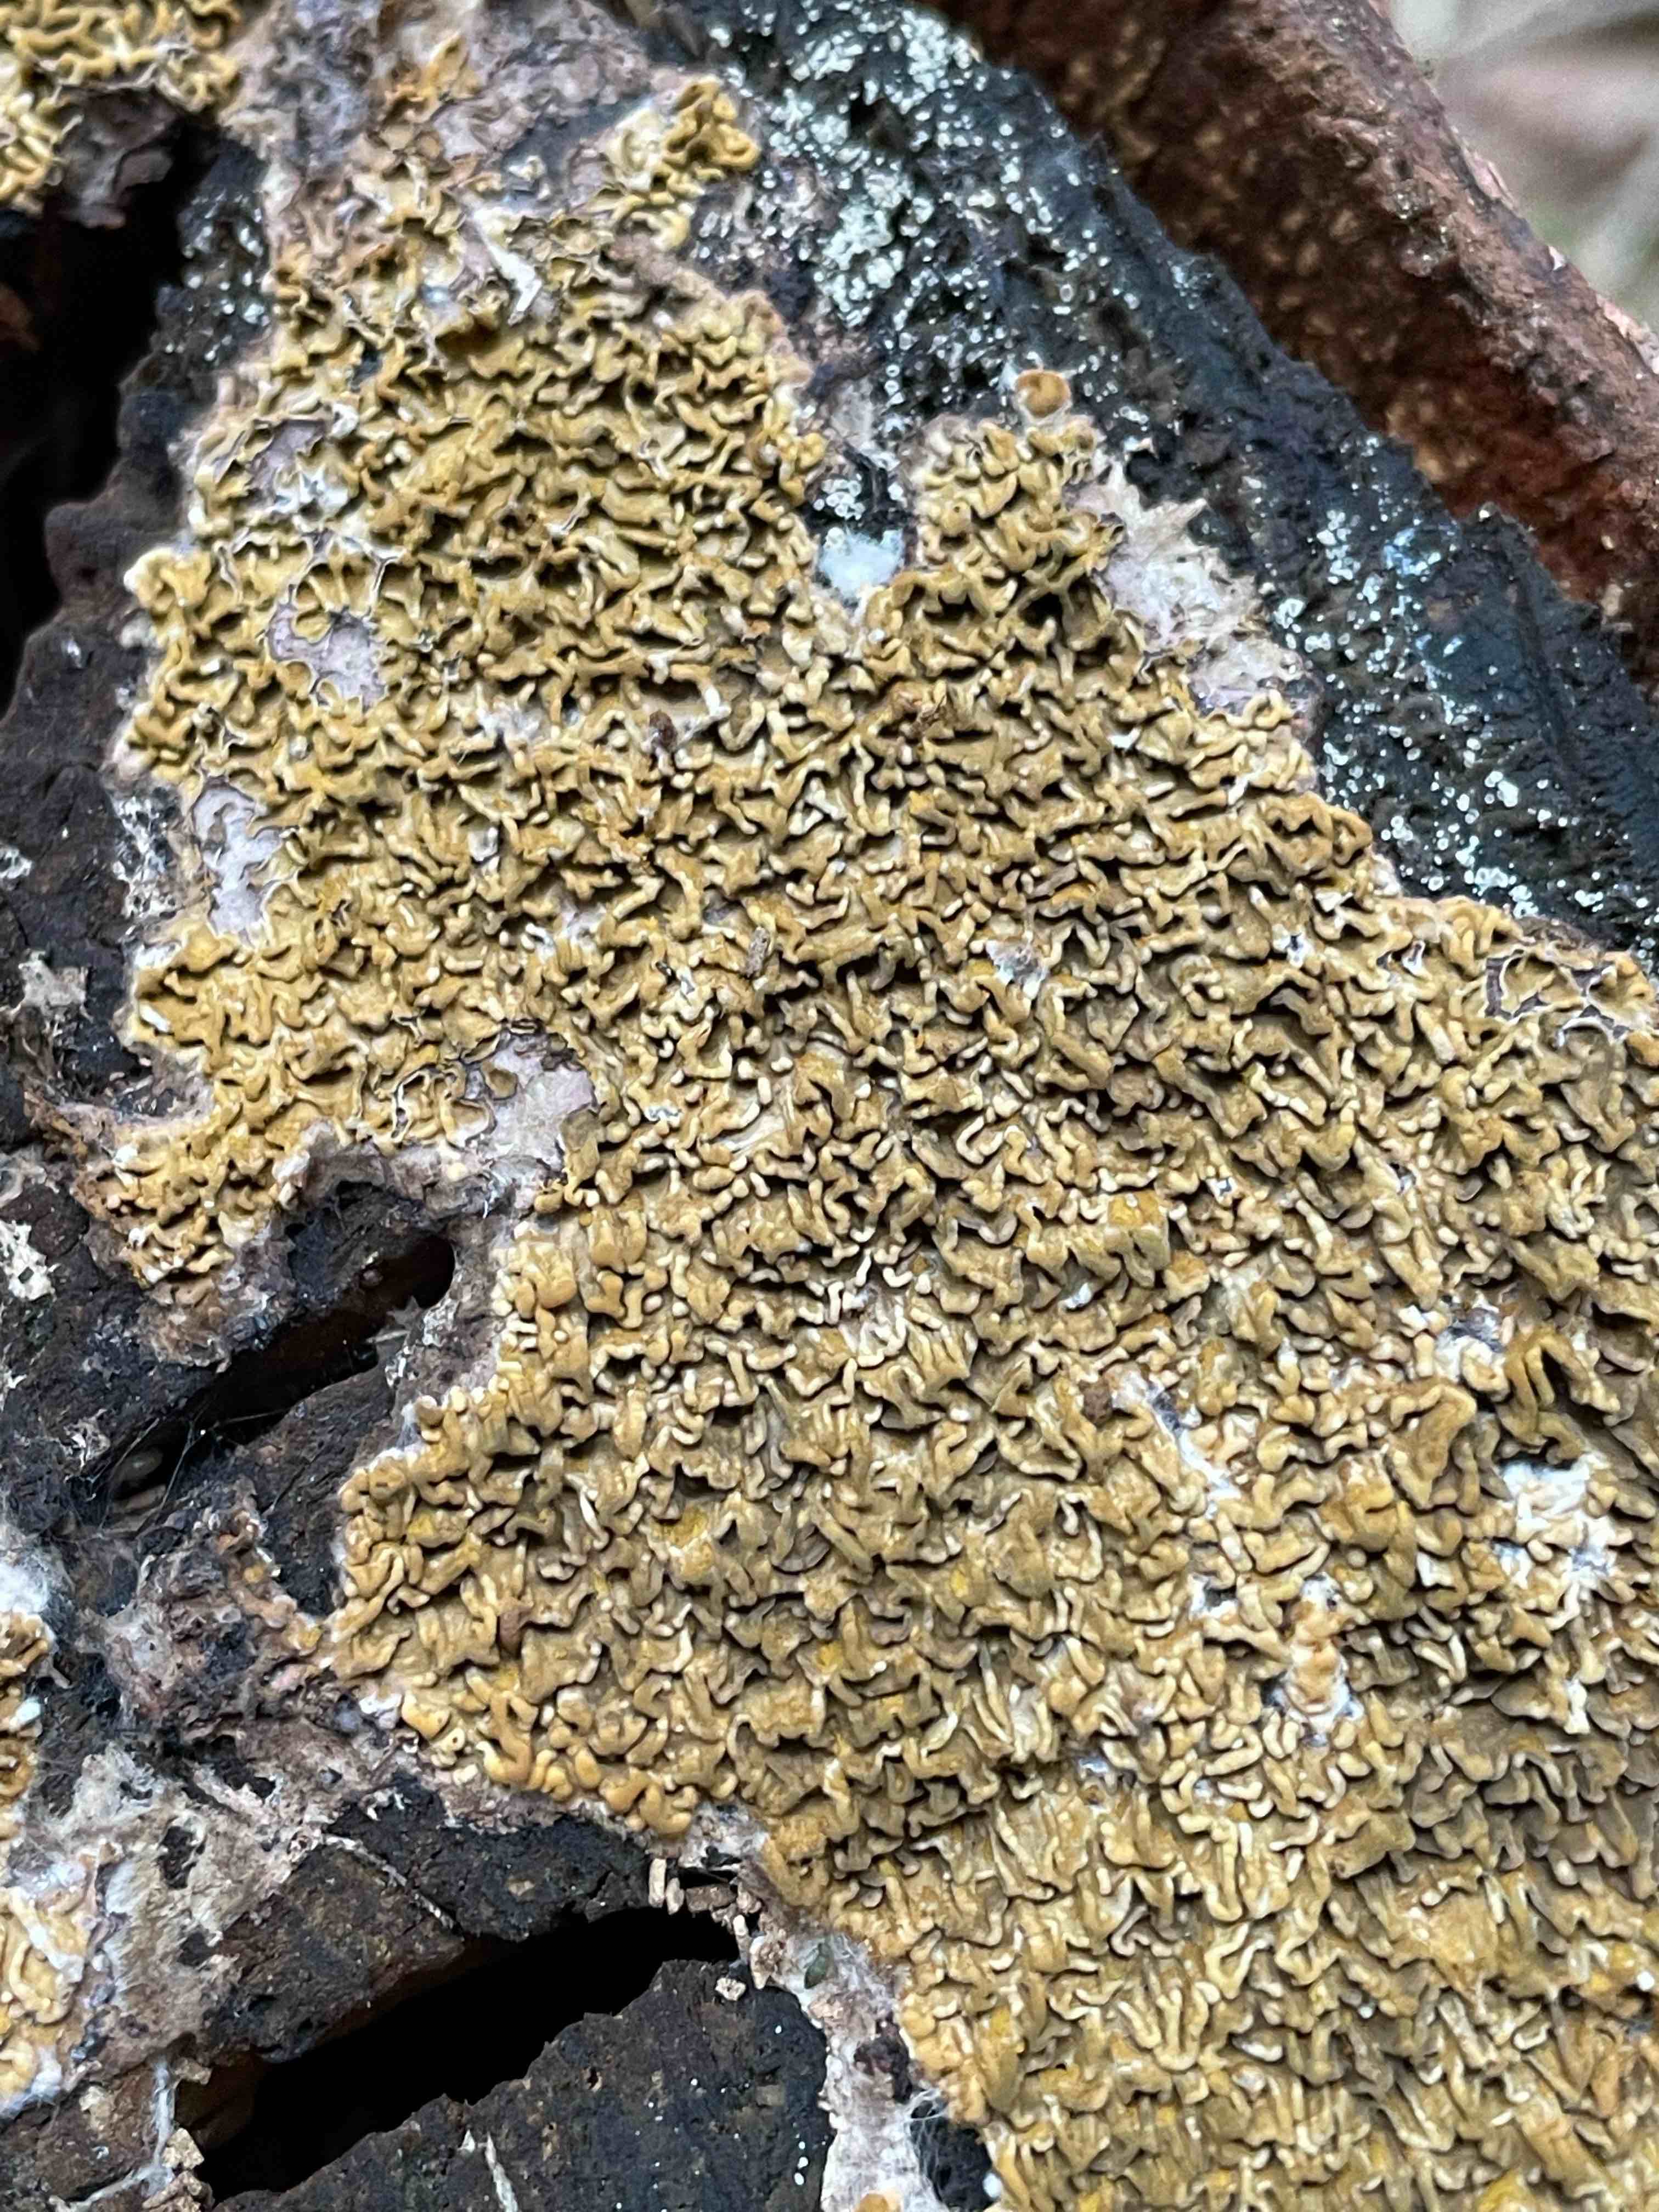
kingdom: Fungi
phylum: Basidiomycota
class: Agaricomycetes
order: Boletales
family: Serpulaceae
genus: Serpula
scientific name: Serpula himantioides
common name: tyndkødet hussvamp
